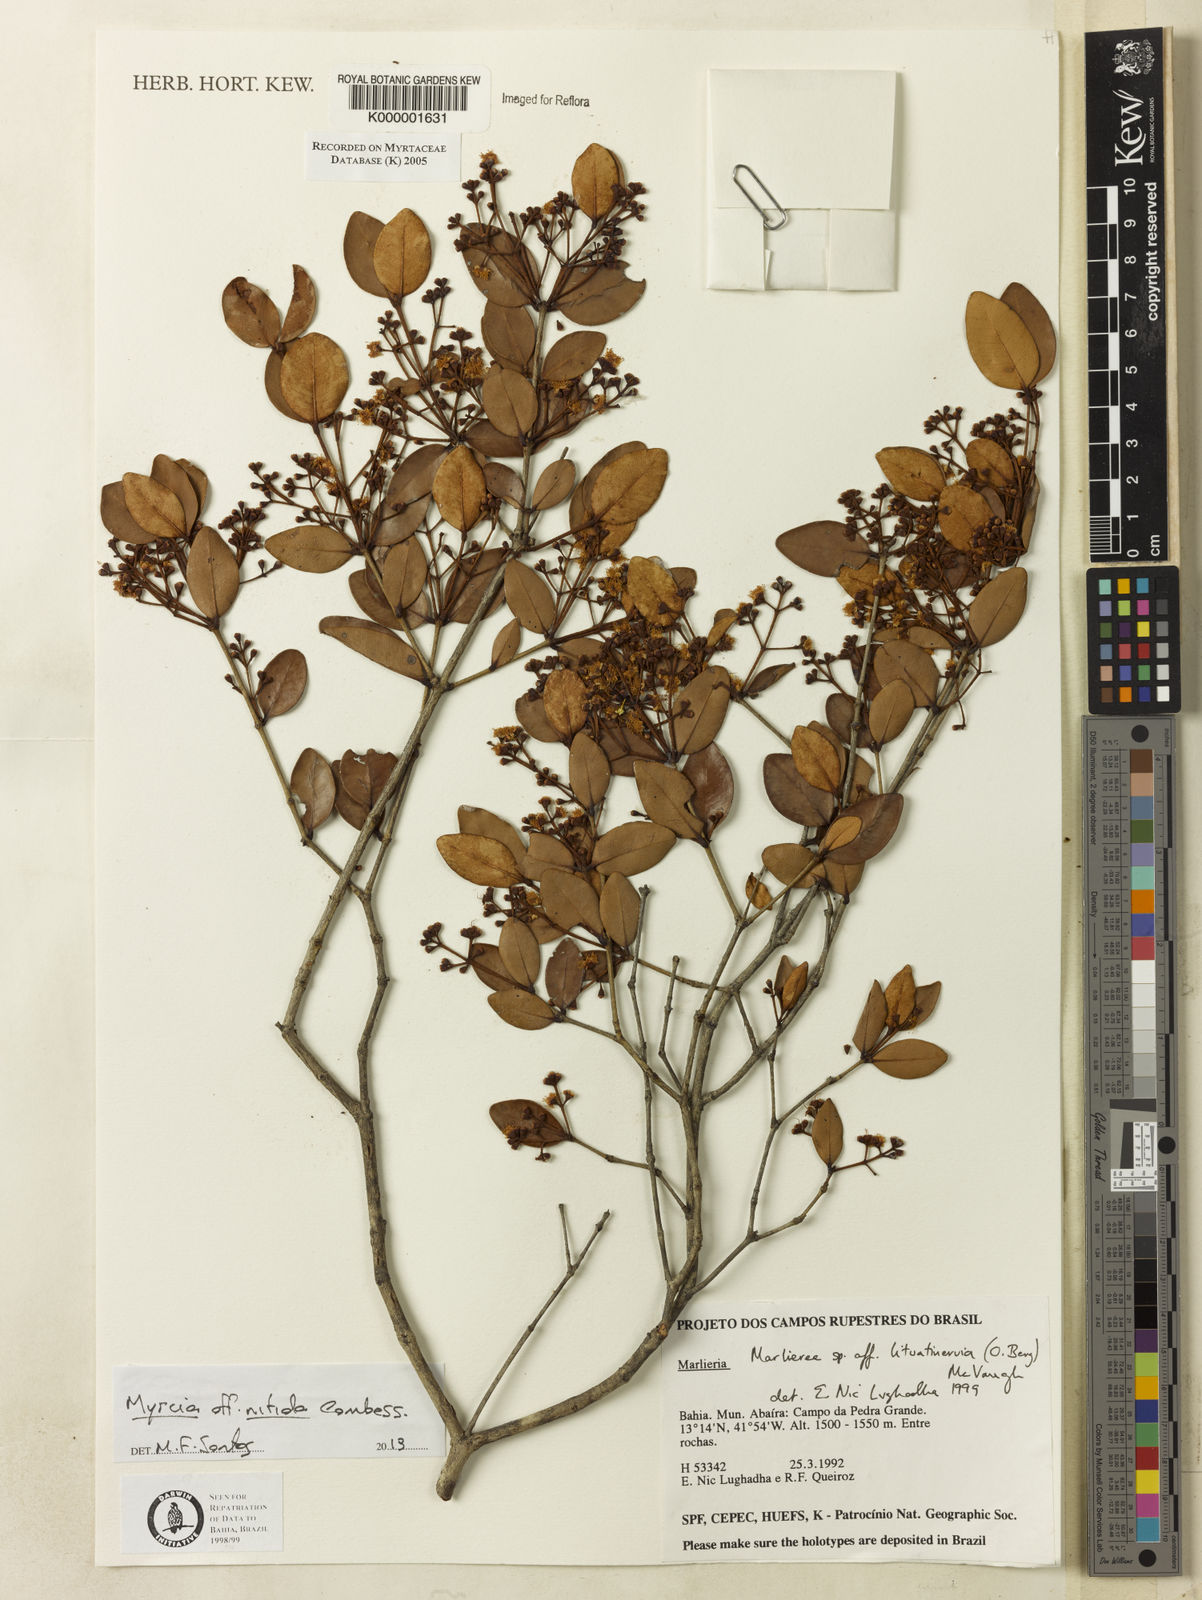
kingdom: Plantae
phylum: Tracheophyta
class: Magnoliopsida
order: Myrtales
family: Myrtaceae
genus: Myrcia
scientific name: Myrcia lituatinervia
